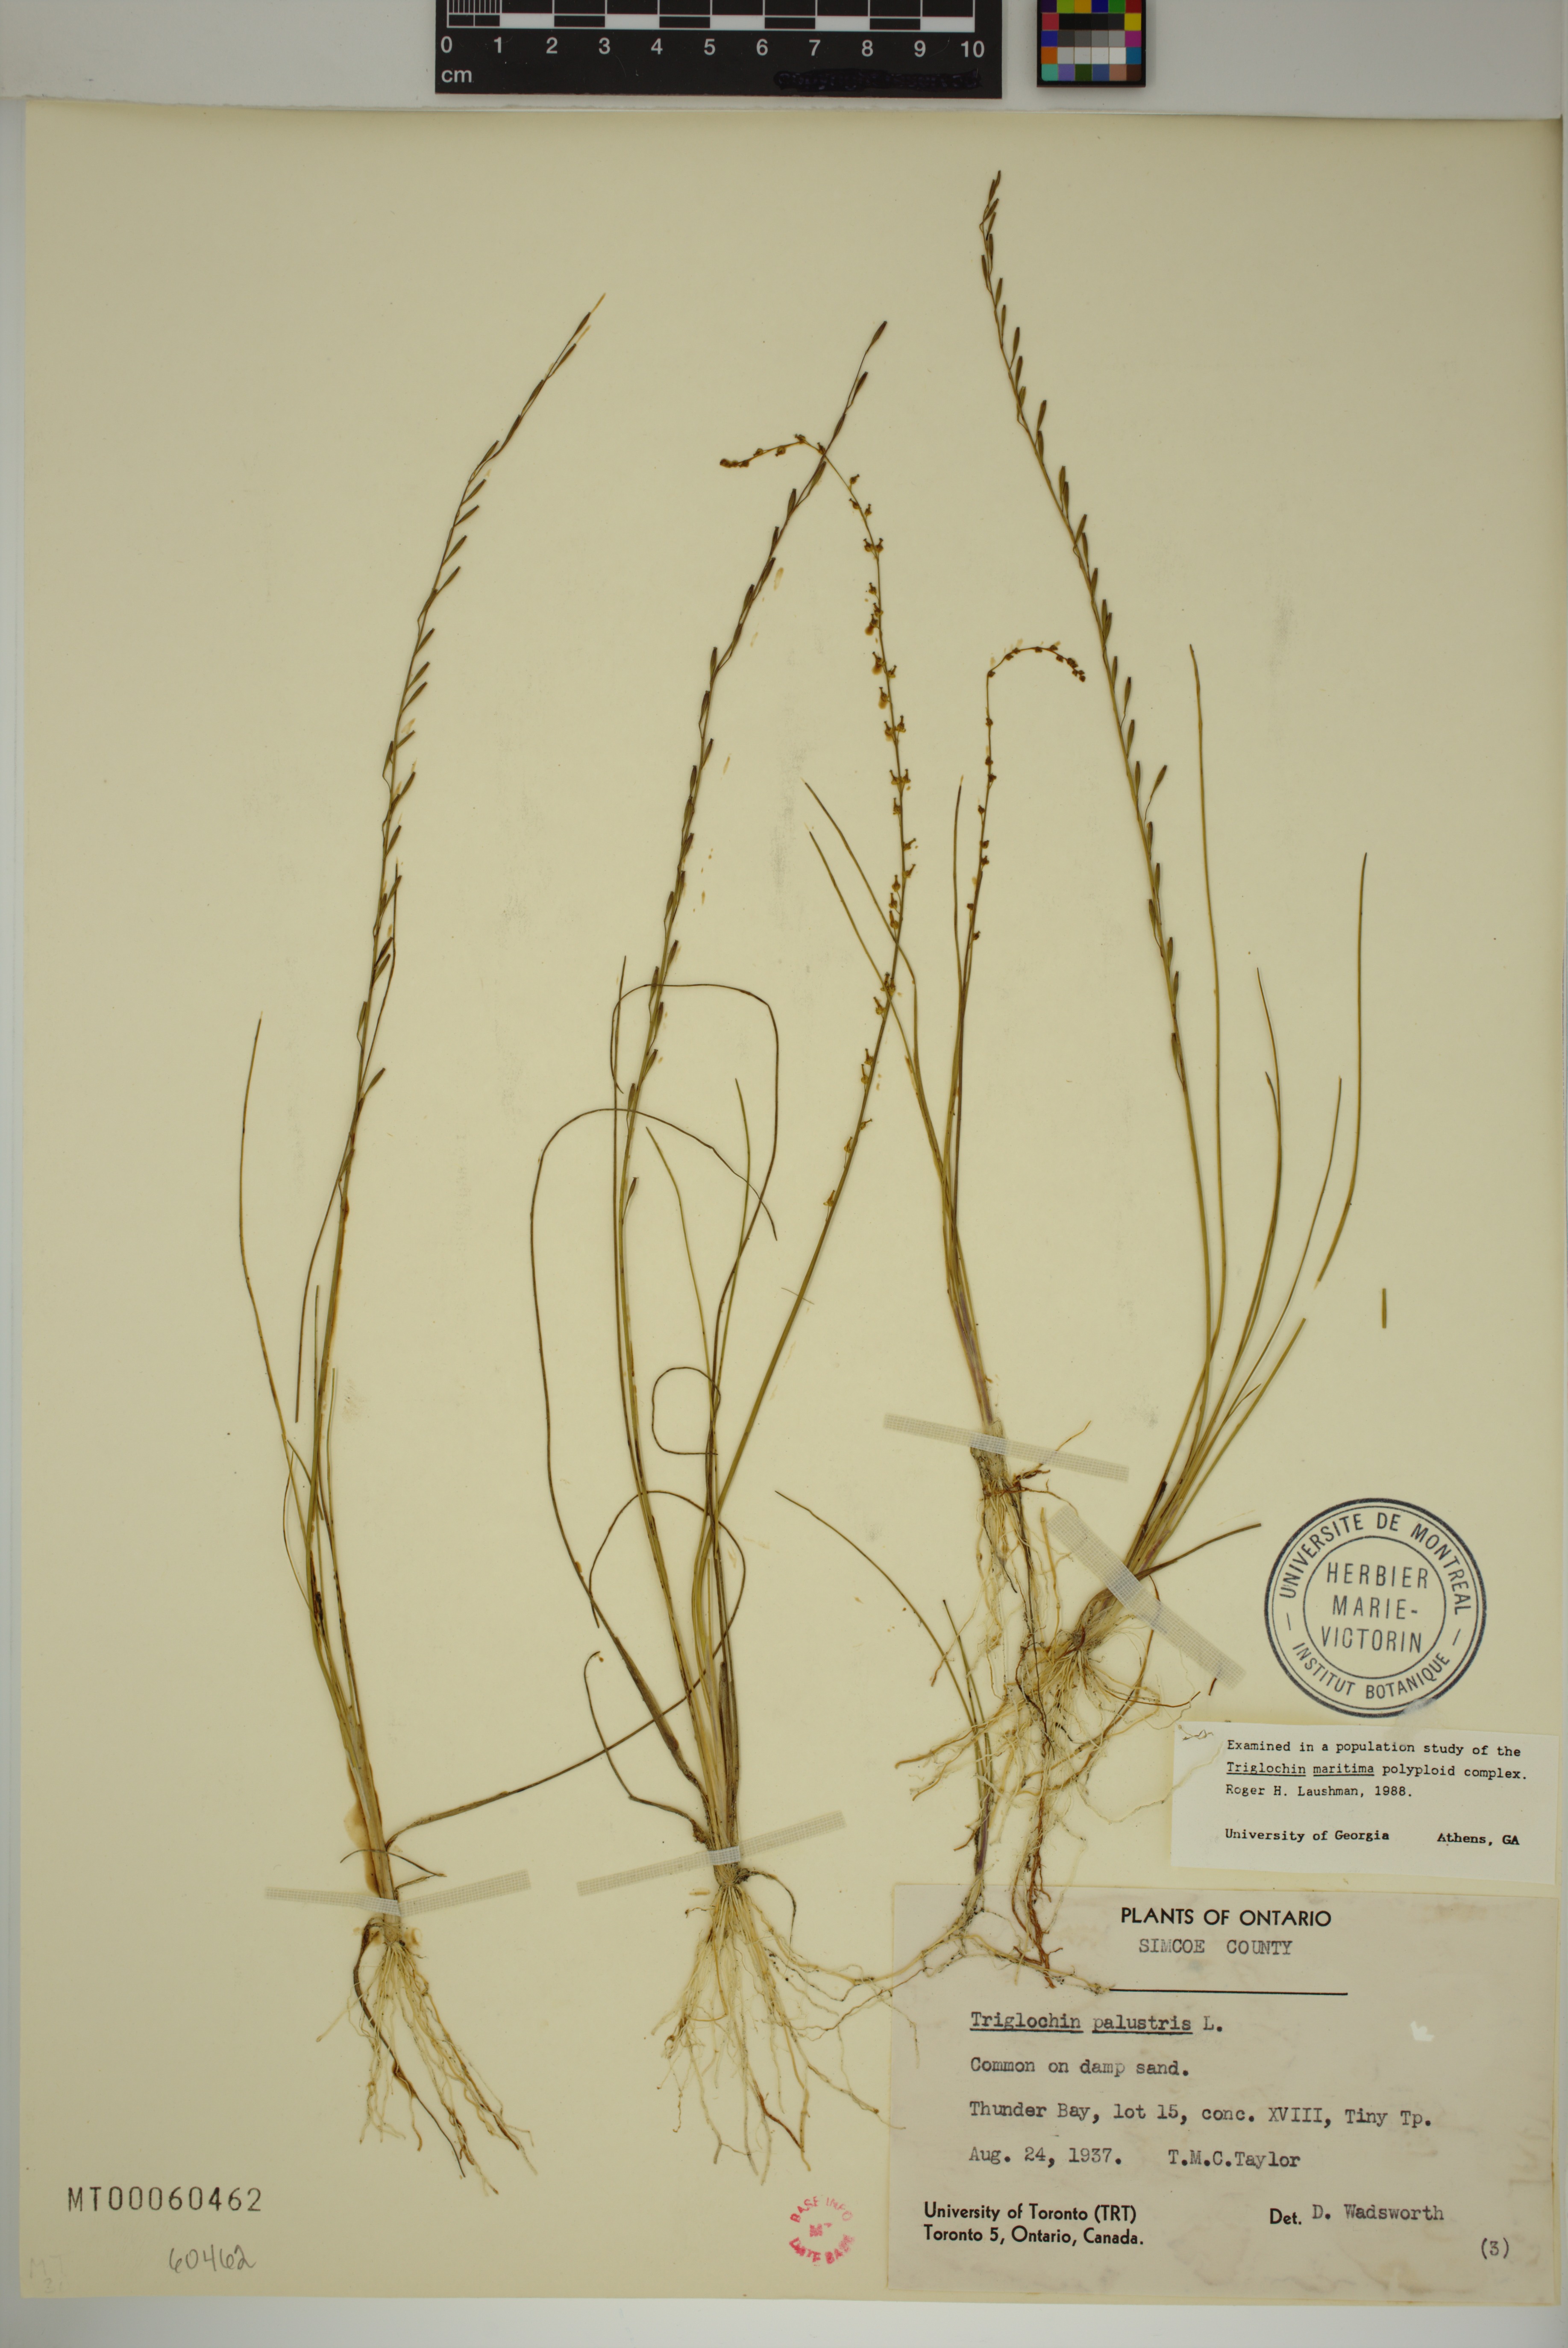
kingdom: Plantae
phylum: Tracheophyta
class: Liliopsida
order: Alismatales
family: Juncaginaceae
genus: Triglochin
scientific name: Triglochin palustris
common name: Marsh arrowgrass
